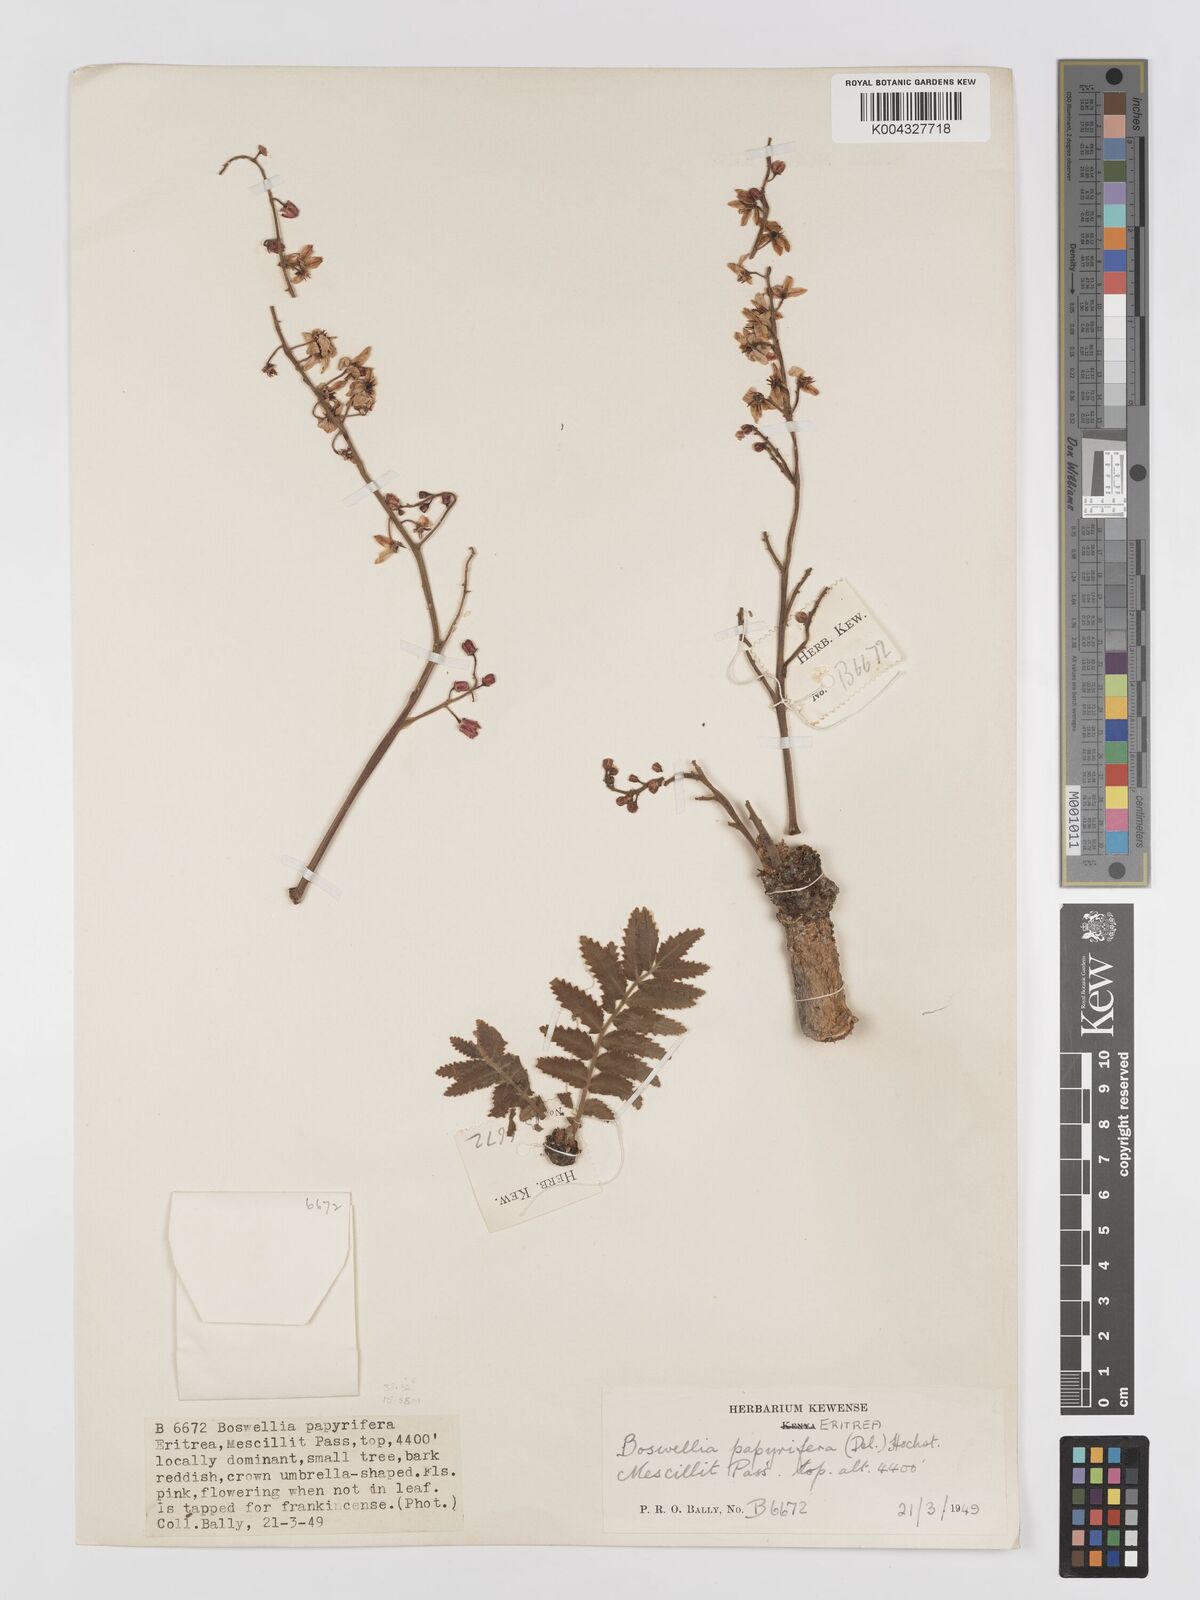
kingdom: Plantae
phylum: Tracheophyta
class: Magnoliopsida
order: Sapindales
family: Burseraceae
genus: Boswellia
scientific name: Boswellia papyrifera
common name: Sudanese frankincense
